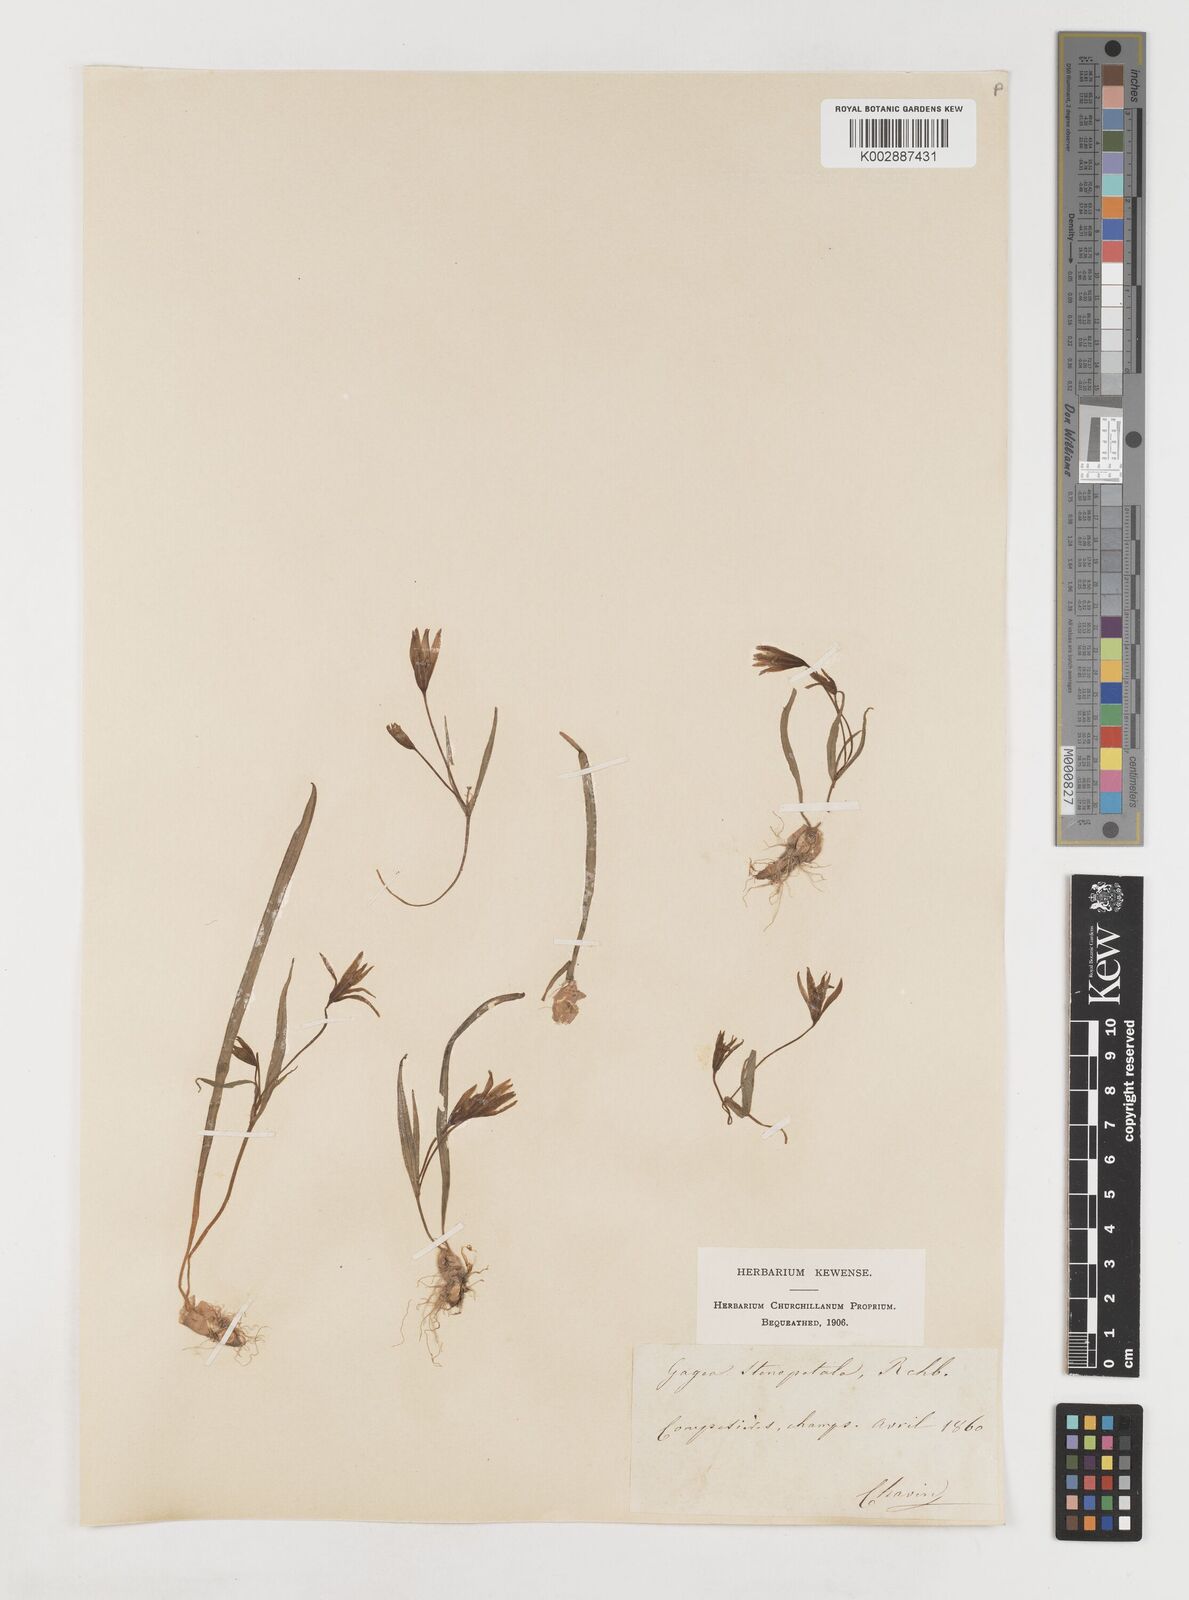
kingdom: Plantae
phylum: Tracheophyta
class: Liliopsida
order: Liliales
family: Liliaceae
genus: Gagea
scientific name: Gagea pratensis
